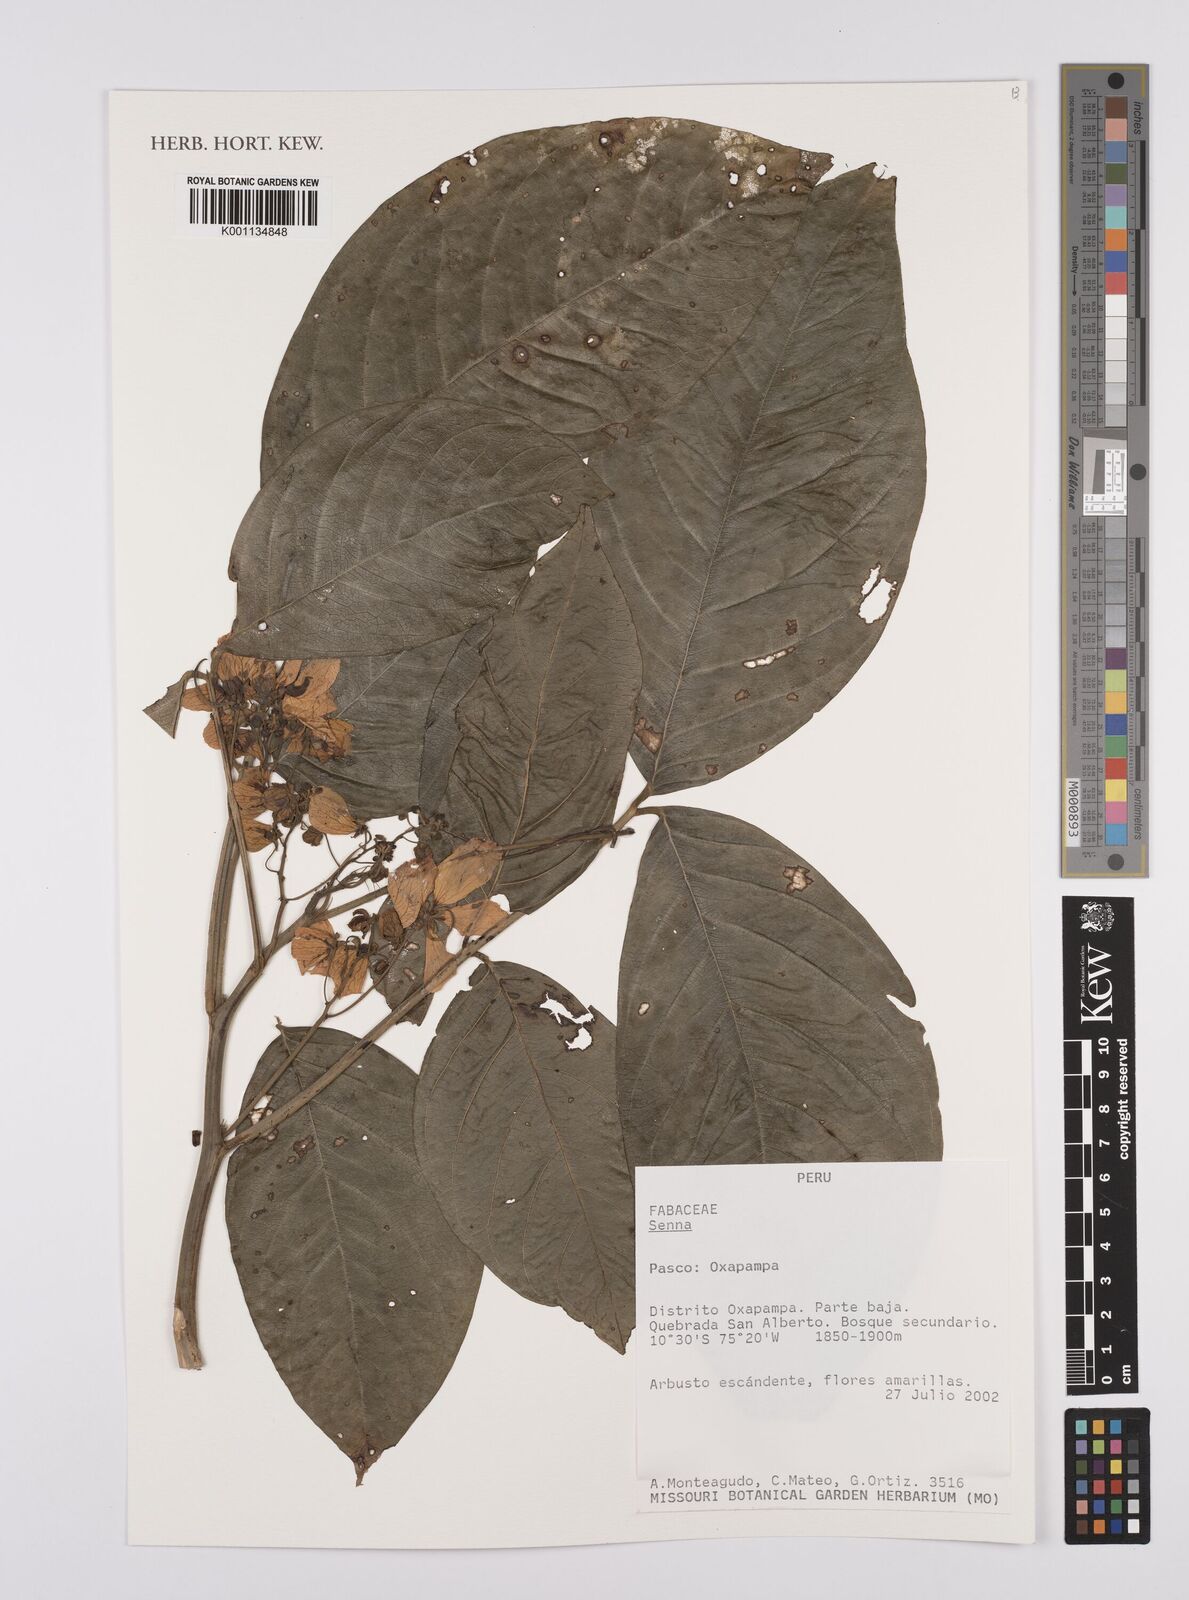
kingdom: Plantae
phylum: Tracheophyta
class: Magnoliopsida
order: Fabales
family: Fabaceae
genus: Senna
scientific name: Senna
